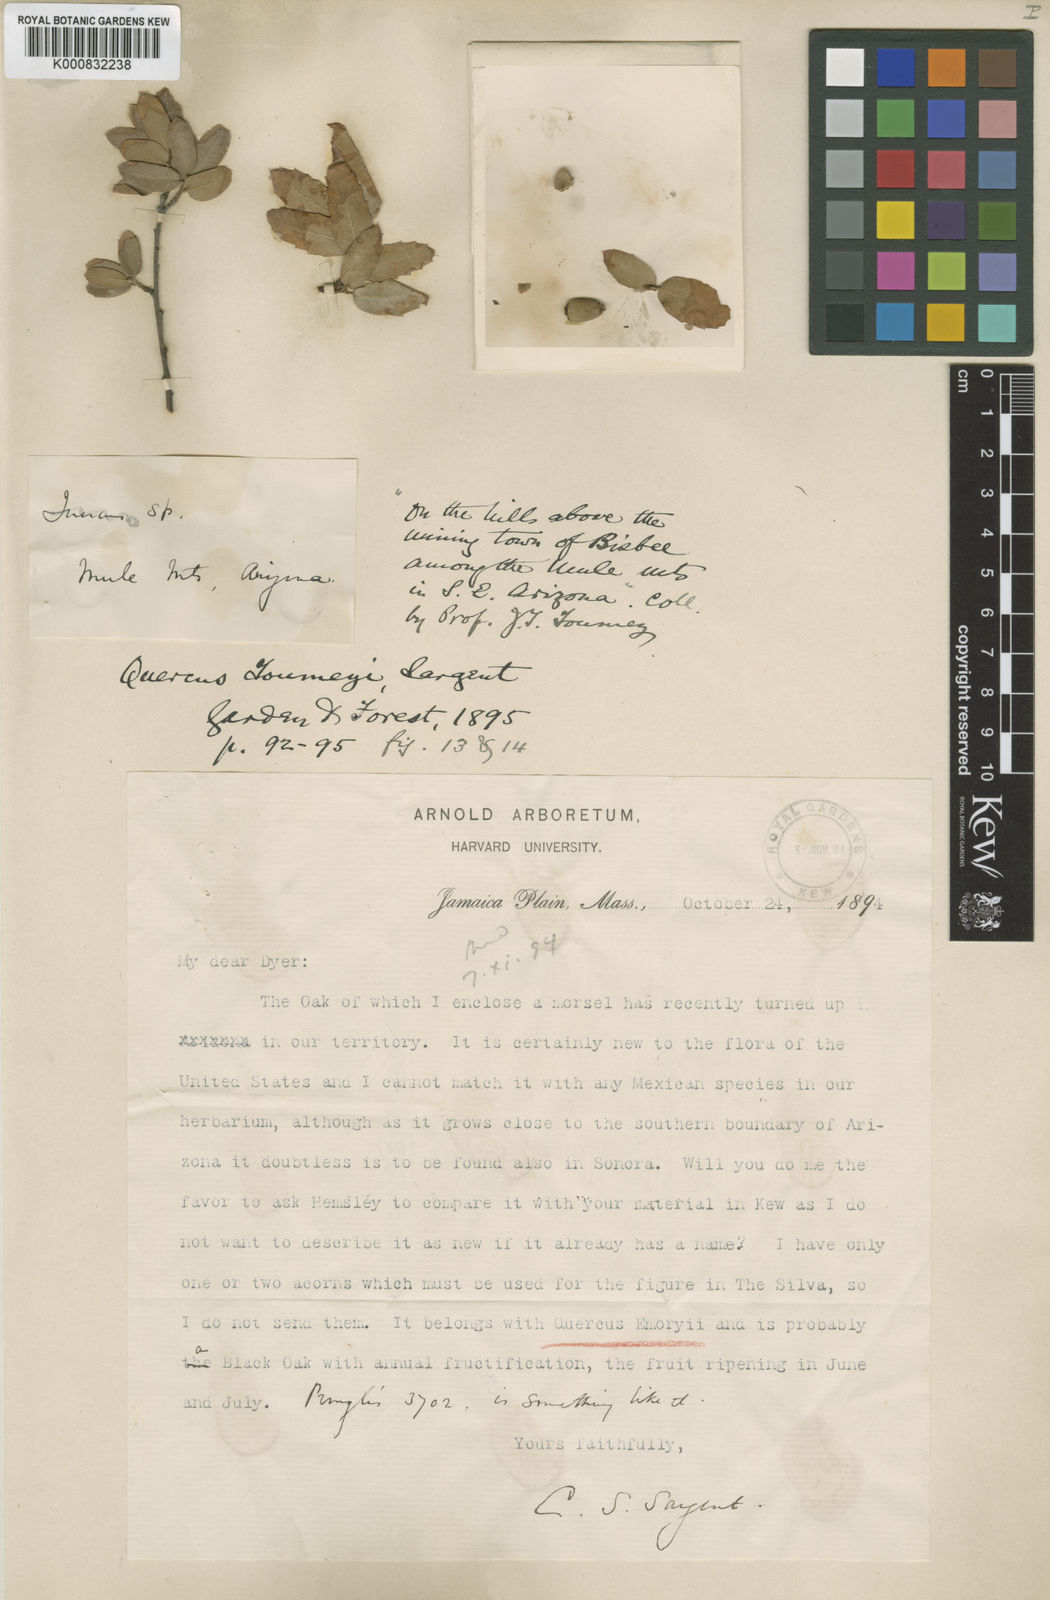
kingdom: Plantae
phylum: Tracheophyta
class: Magnoliopsida
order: Fagales
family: Fagaceae
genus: Quercus
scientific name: Quercus toumeyi
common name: Toumey oak
